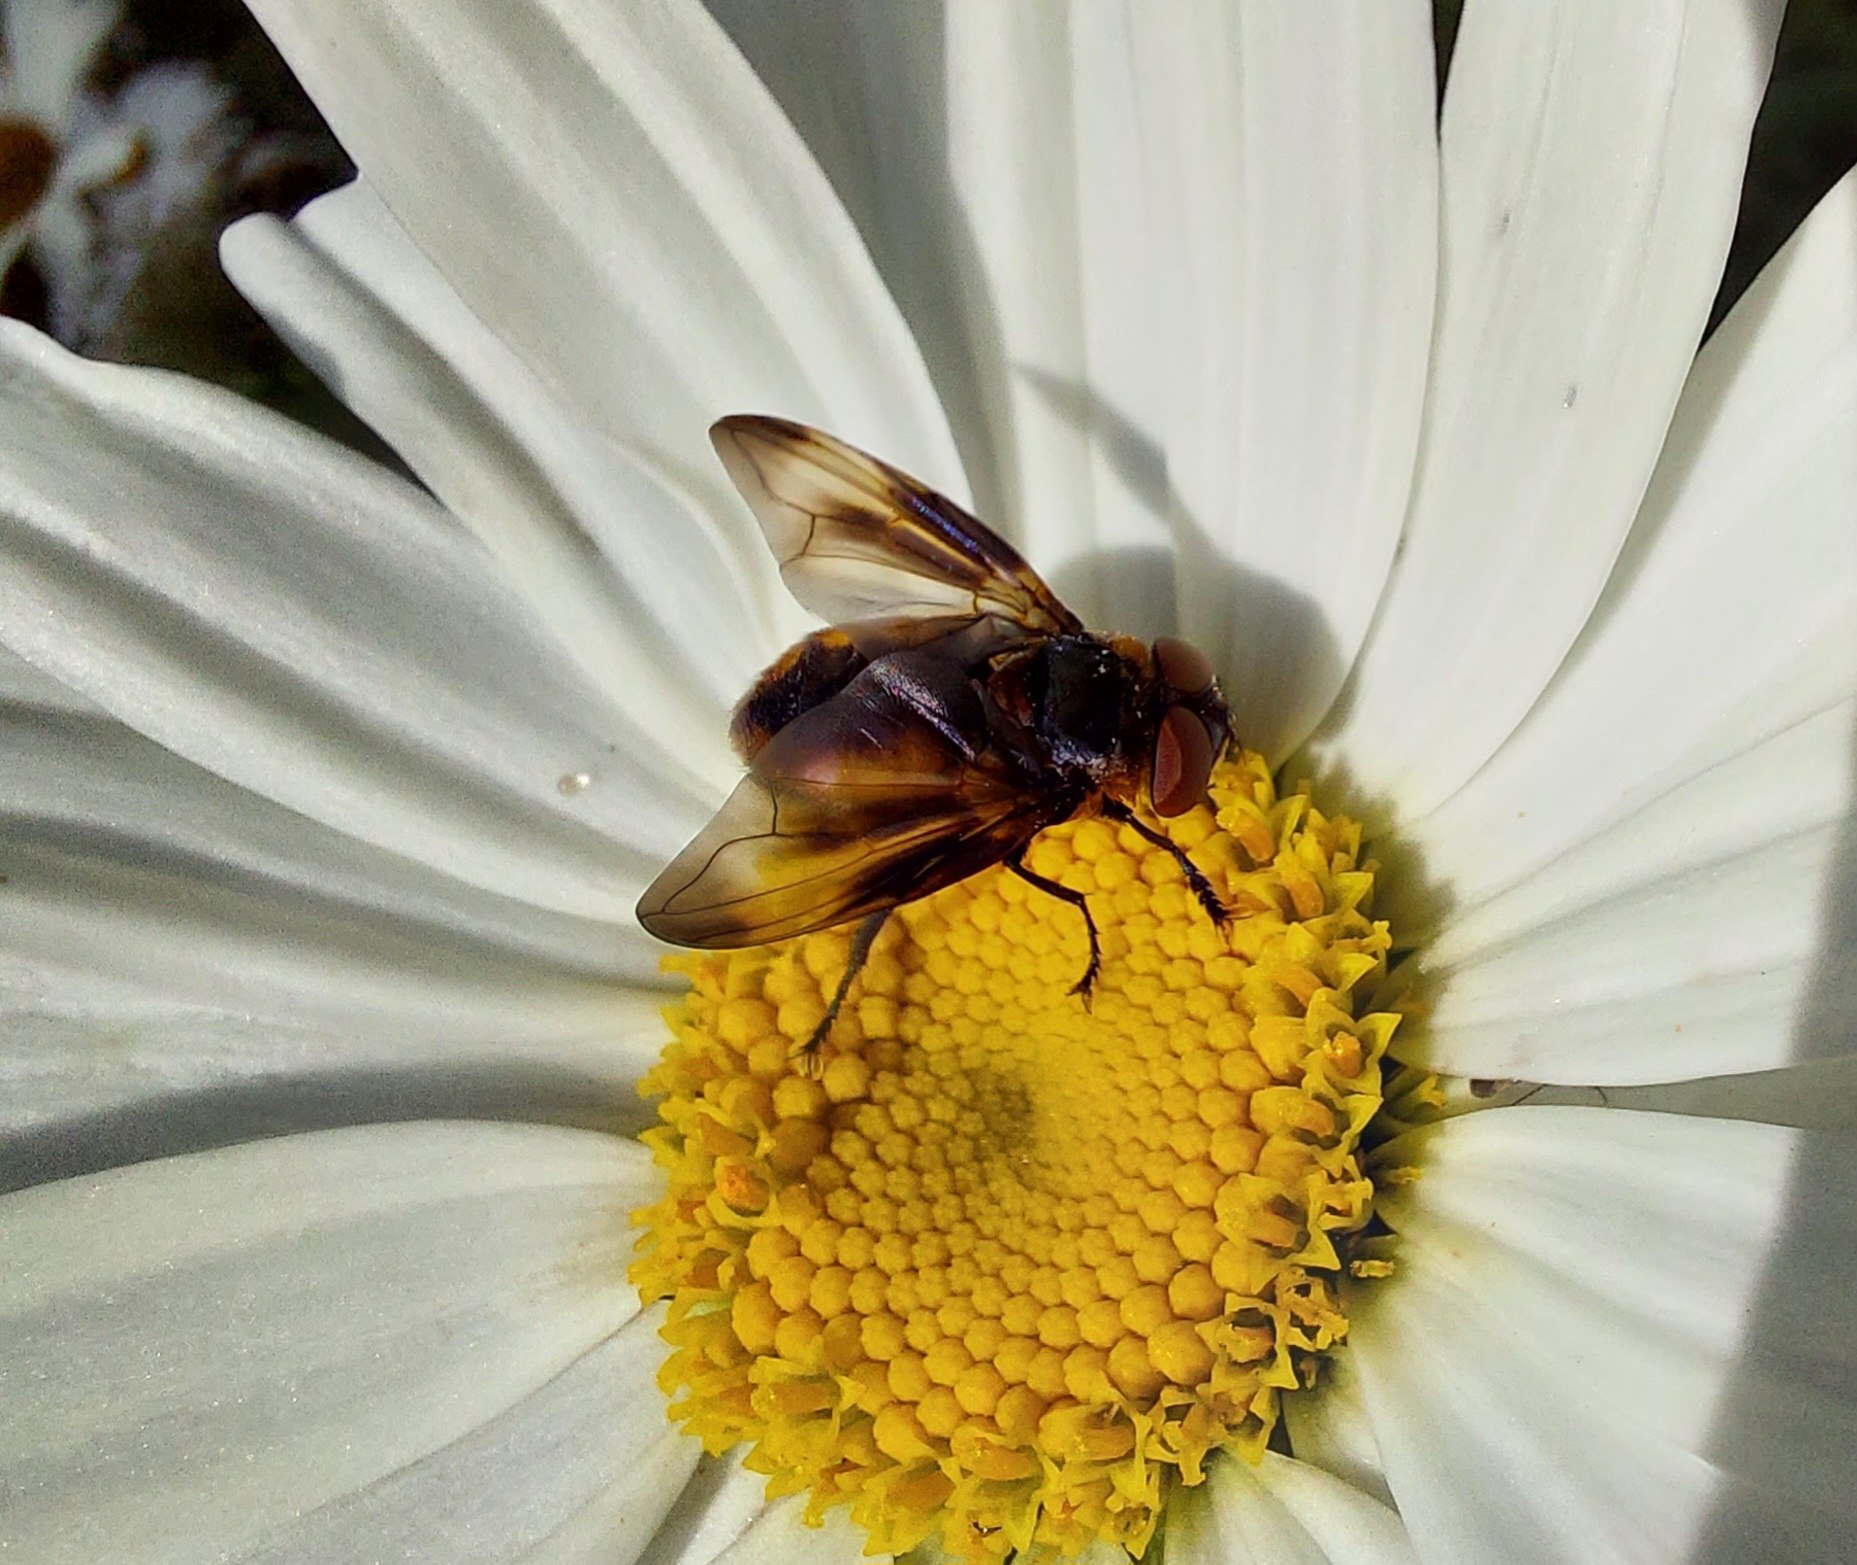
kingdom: Animalia
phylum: Arthropoda
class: Insecta
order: Diptera
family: Tachinidae
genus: Phasia
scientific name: Phasia hemiptera
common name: Blåvinget pragtsnylteflue
